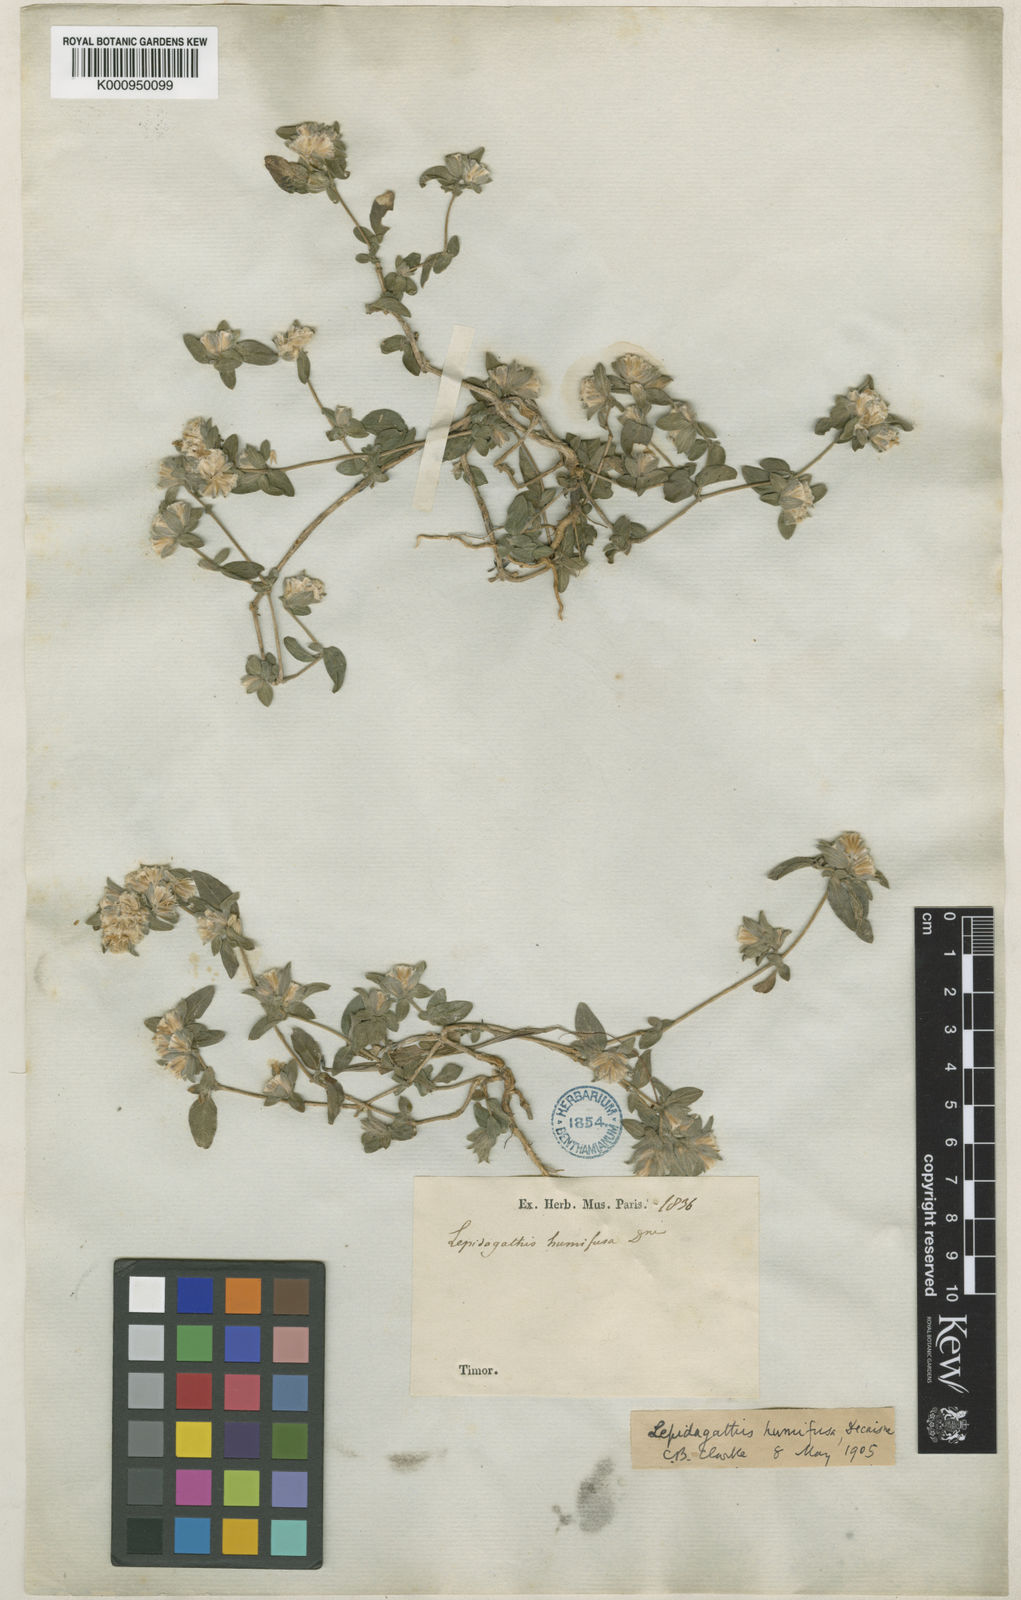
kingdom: Plantae
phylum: Tracheophyta
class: Magnoliopsida
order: Lamiales
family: Acanthaceae
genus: Lepidagathis
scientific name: Lepidagathis humifusa
